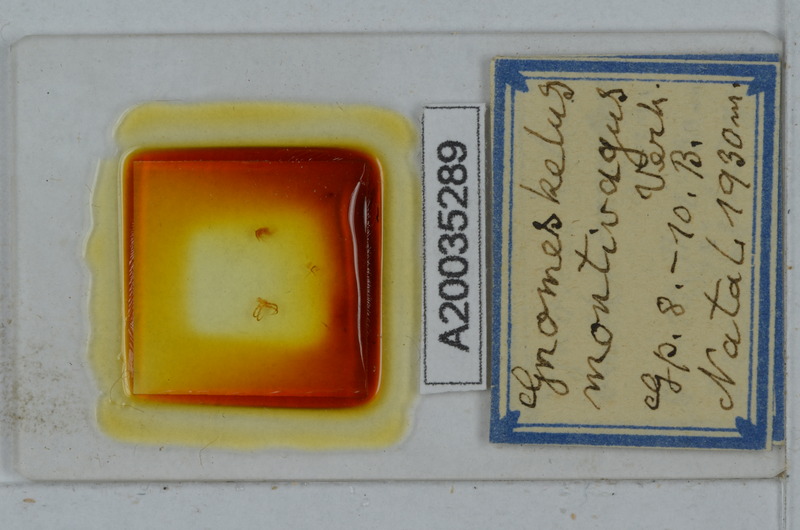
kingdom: Animalia
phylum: Arthropoda
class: Diplopoda
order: Polydesmida
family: Dalodesmidae
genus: Gnomeskelus
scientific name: Gnomeskelus montivagus
